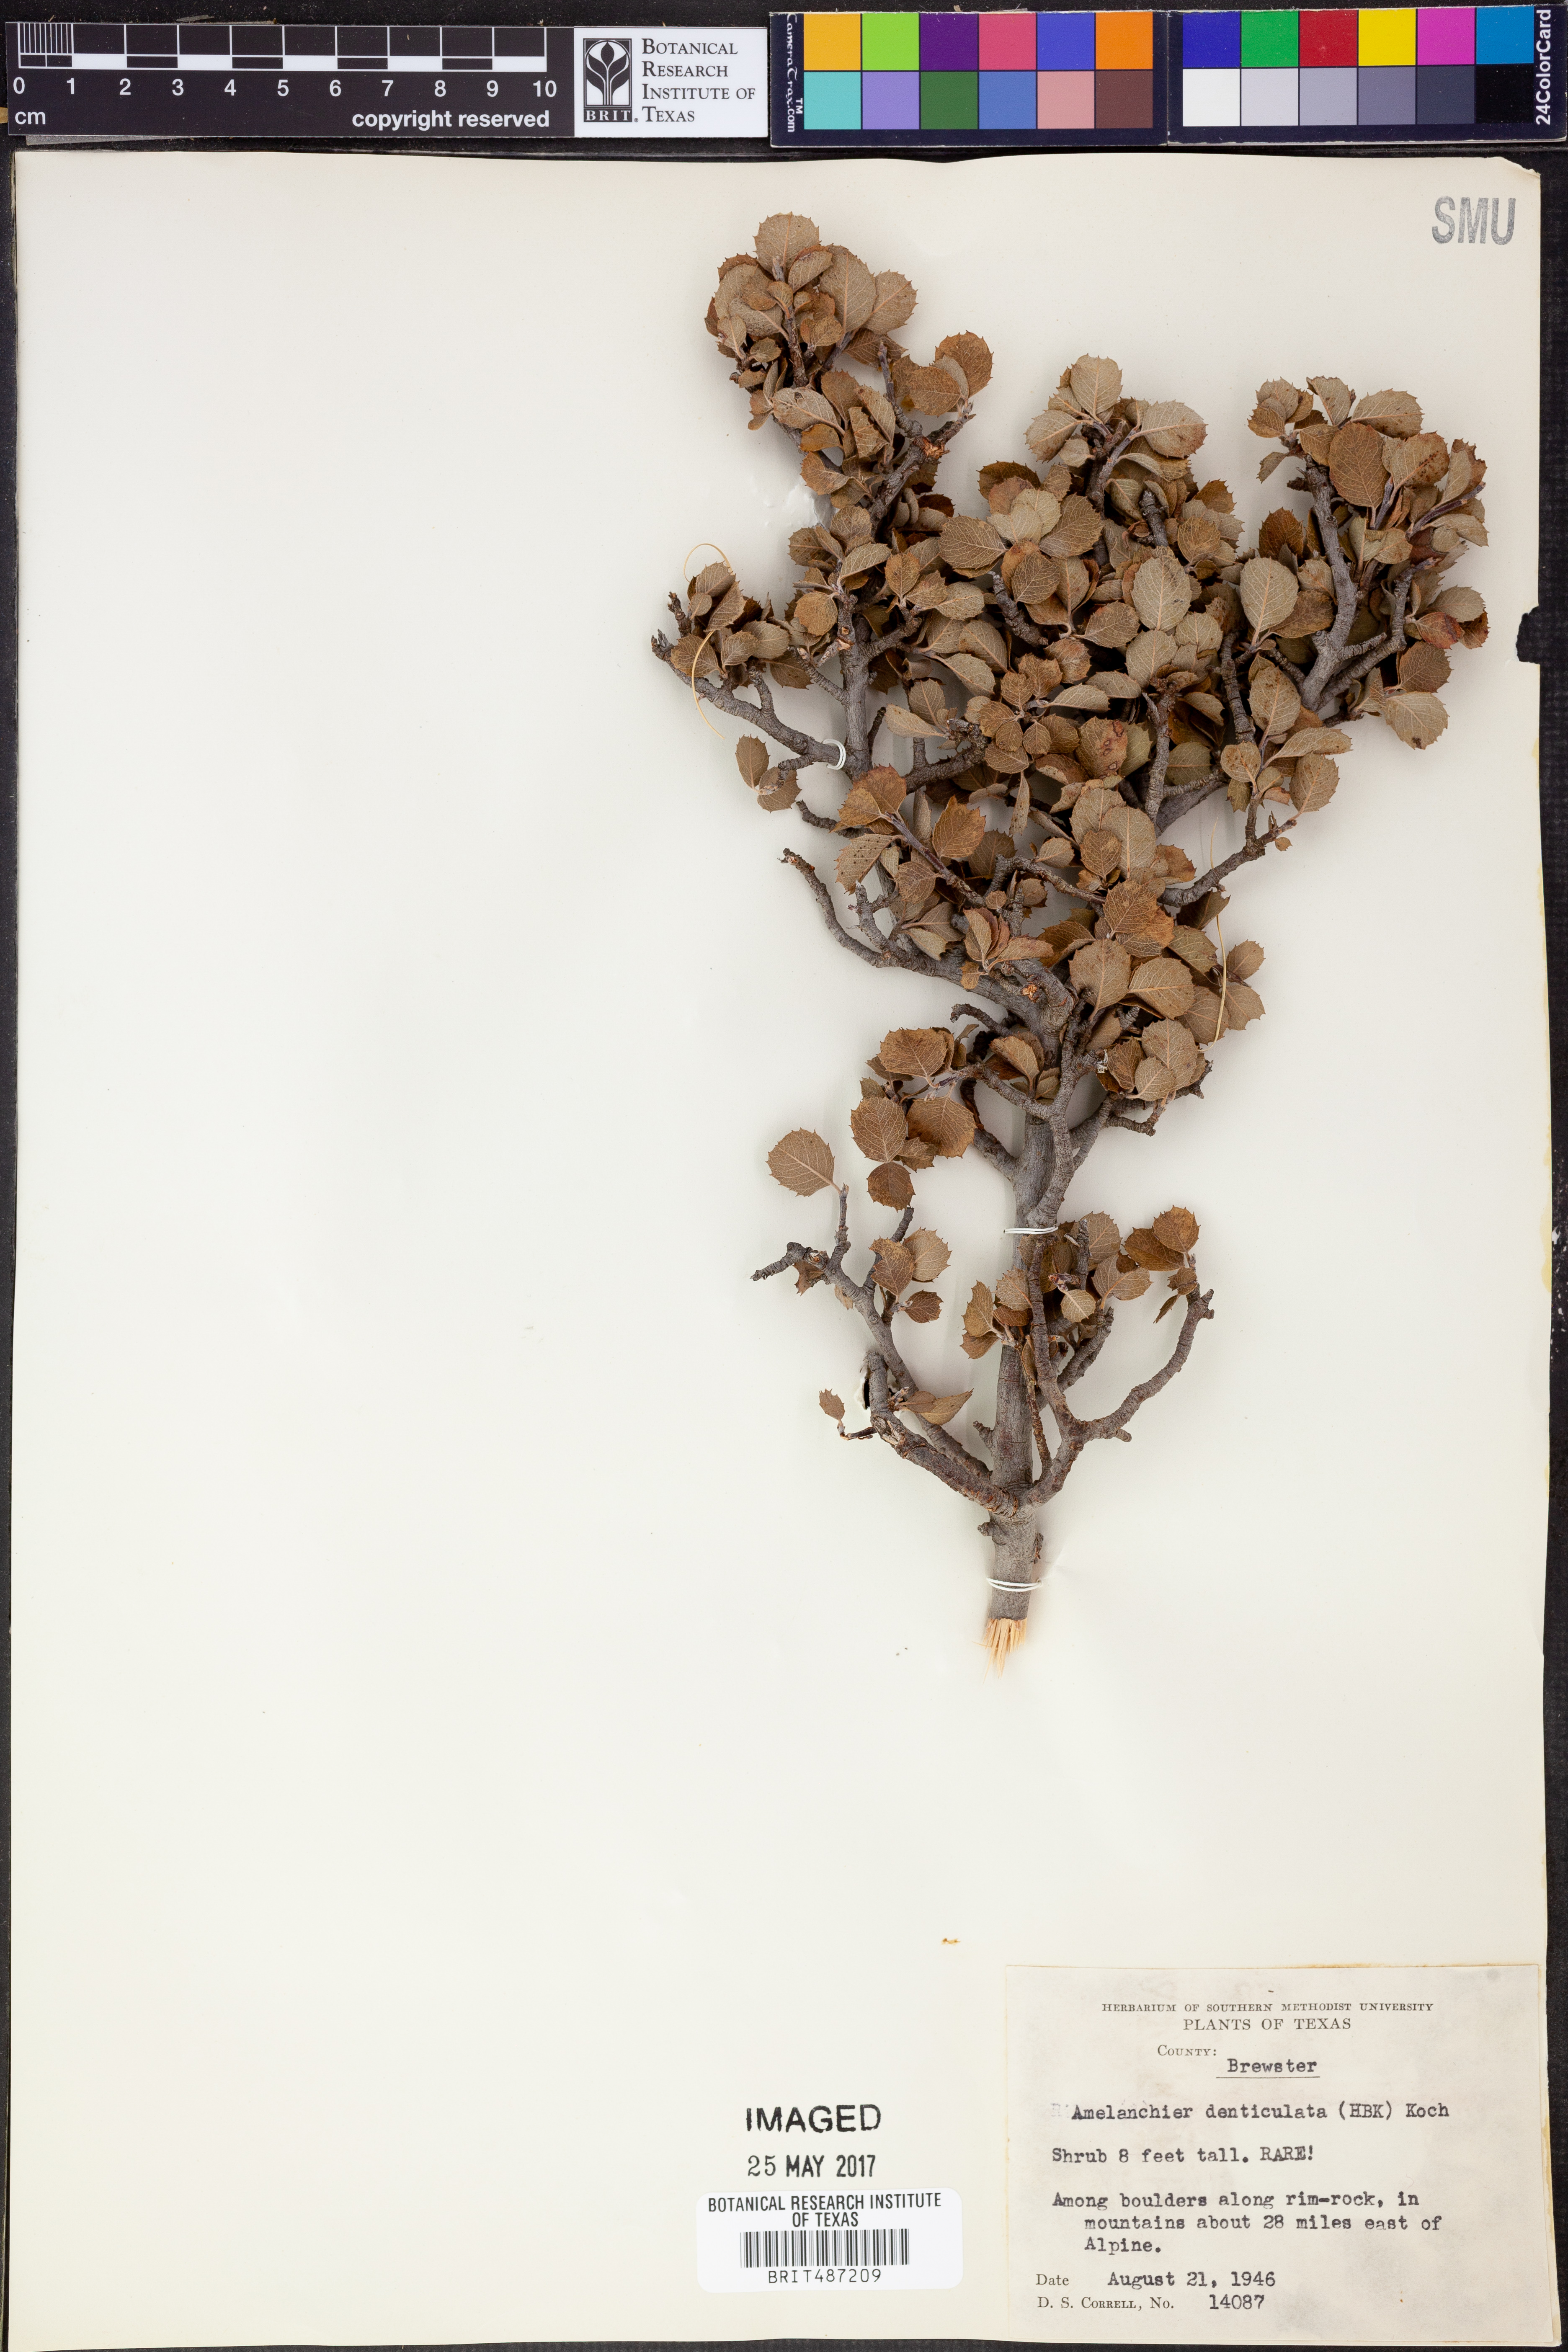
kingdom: Plantae
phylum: Tracheophyta
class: Magnoliopsida
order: Rosales
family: Rosaceae
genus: Malacomeles
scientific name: Malacomeles denticulata
